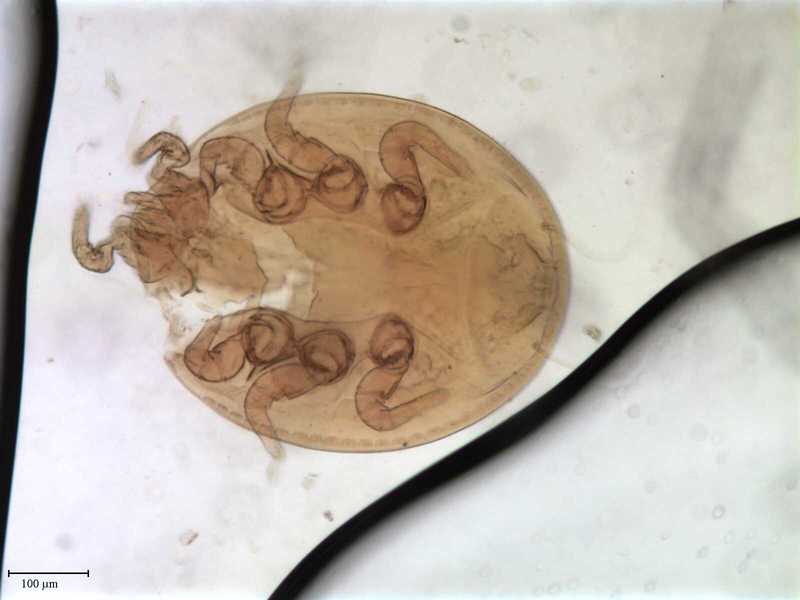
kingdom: Animalia
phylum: Arthropoda
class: Arachnida
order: Mesostigmata
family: Trematuridae
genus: Trichouropoda
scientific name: Trichouropoda bipilis
